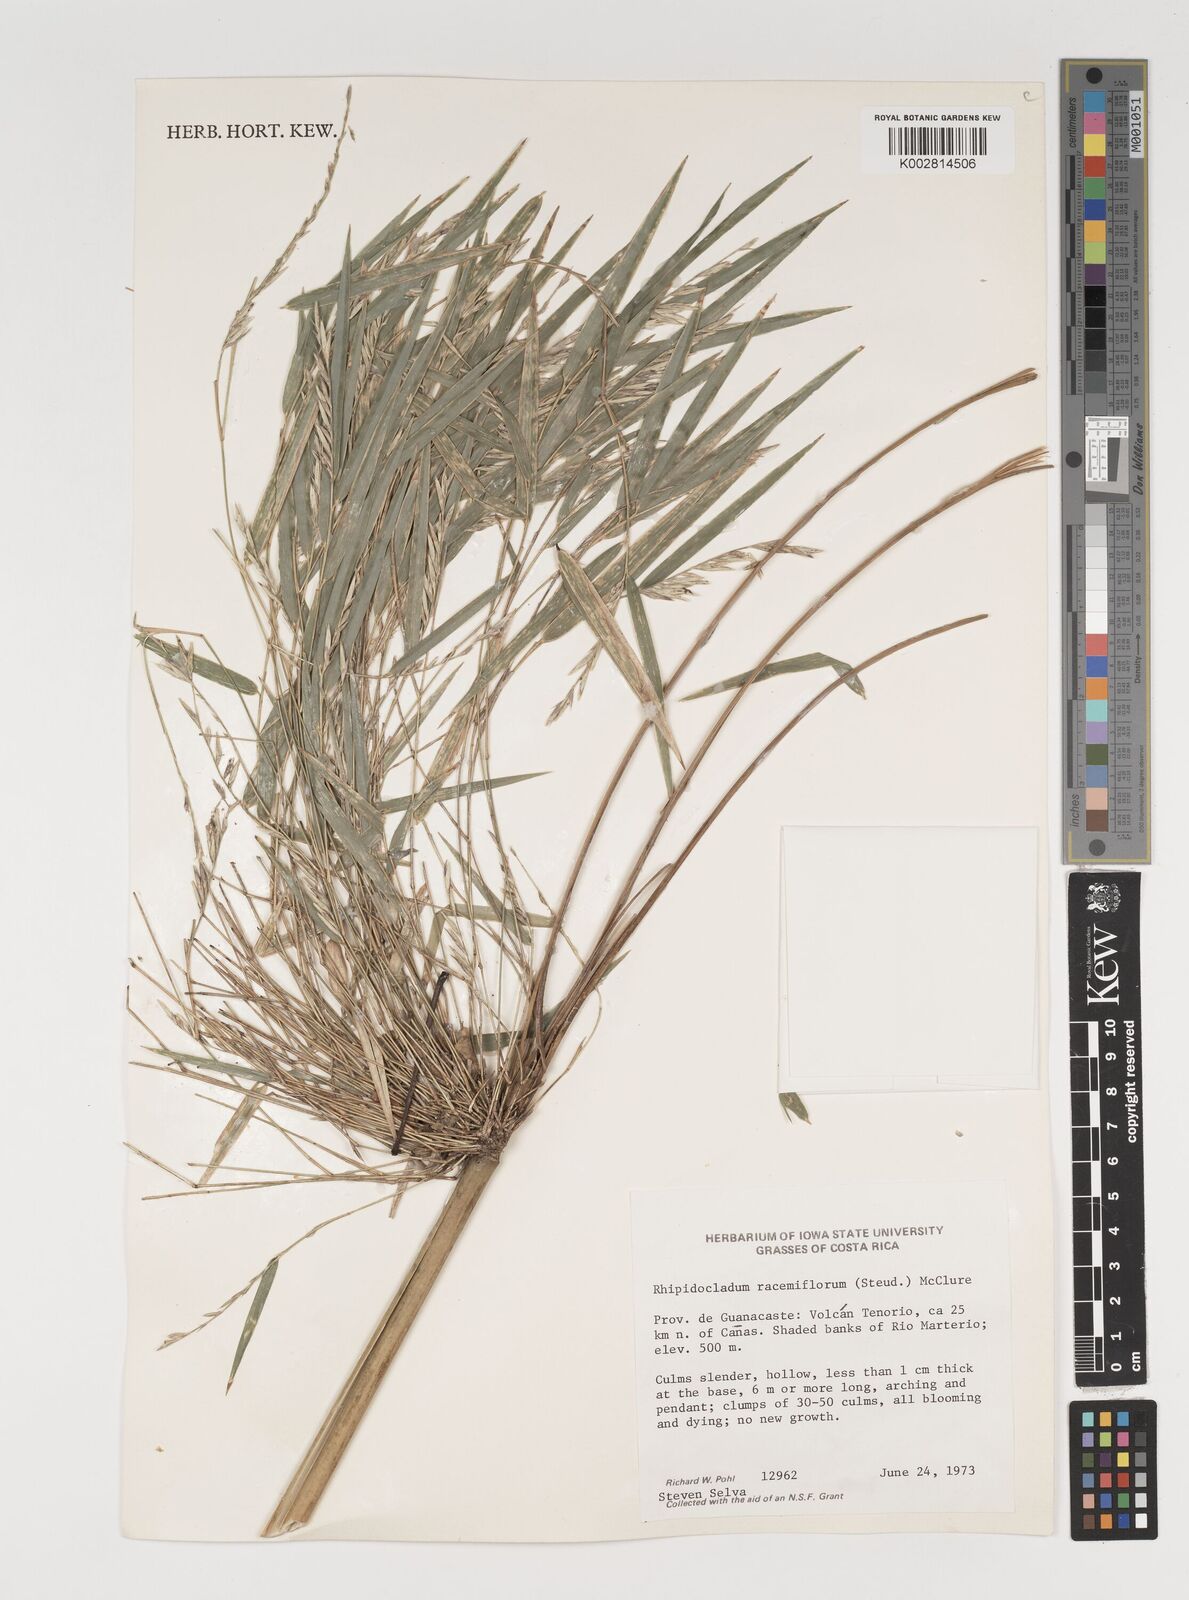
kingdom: Plantae
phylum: Tracheophyta
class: Liliopsida
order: Poales
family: Poaceae
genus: Rhipidocladum
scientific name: Rhipidocladum racemiflorum
